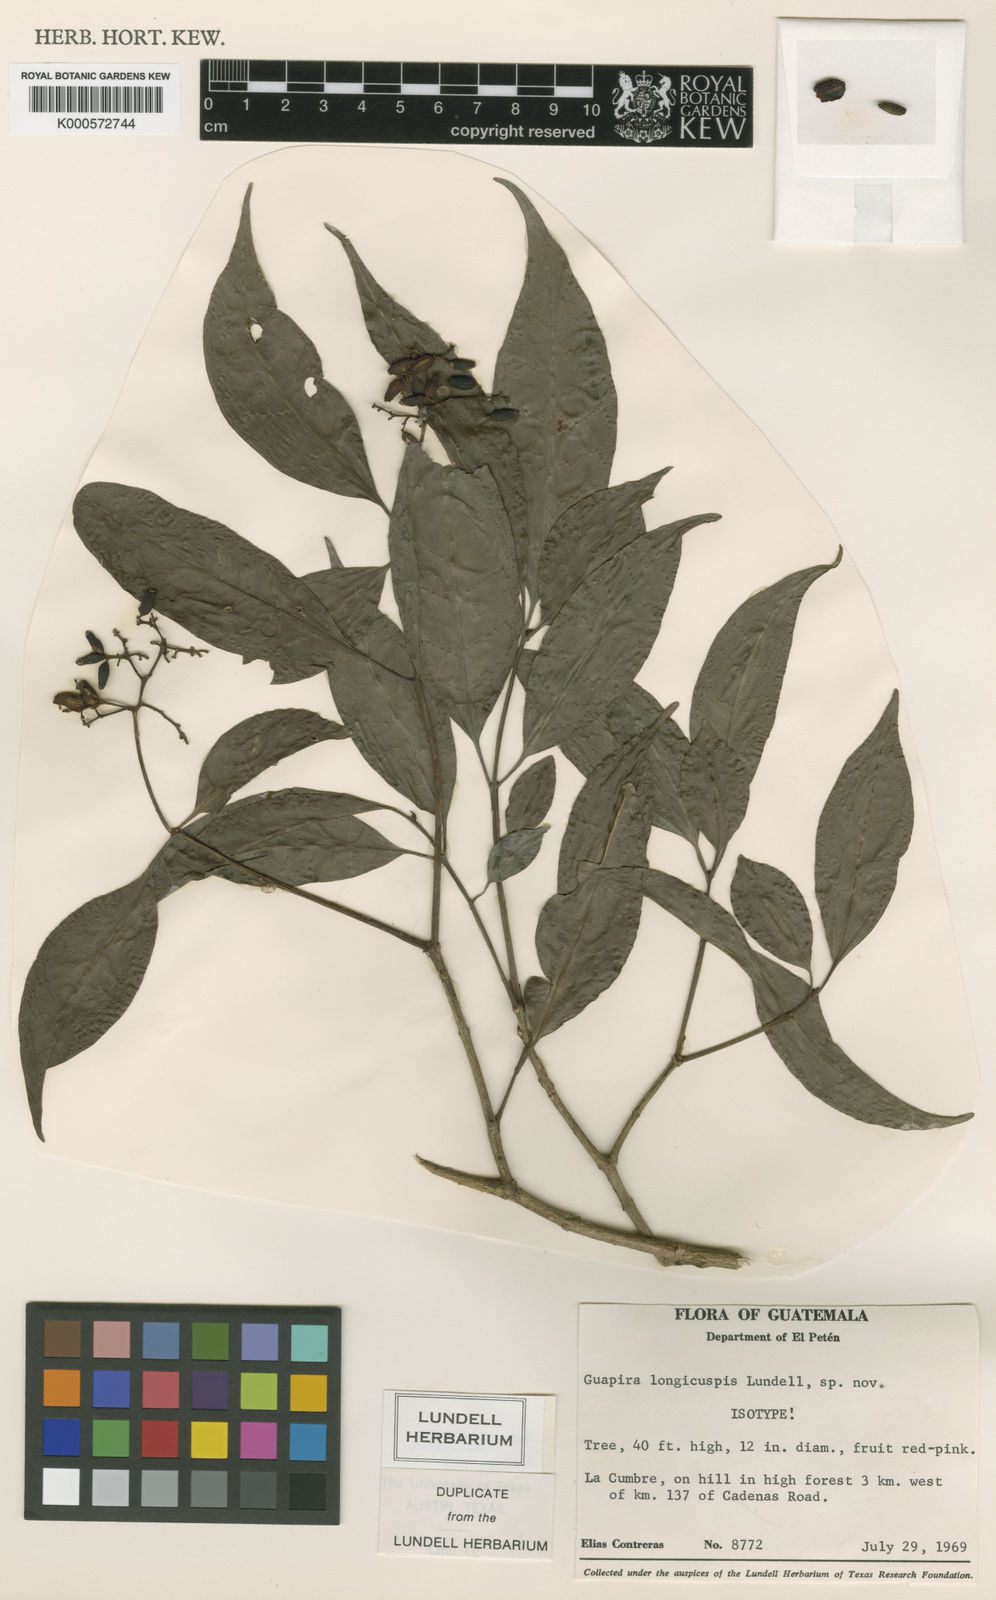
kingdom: Plantae
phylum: Tracheophyta
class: Magnoliopsida
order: Caryophyllales
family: Nyctaginaceae
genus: Guapira
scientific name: Guapira longicuspis
